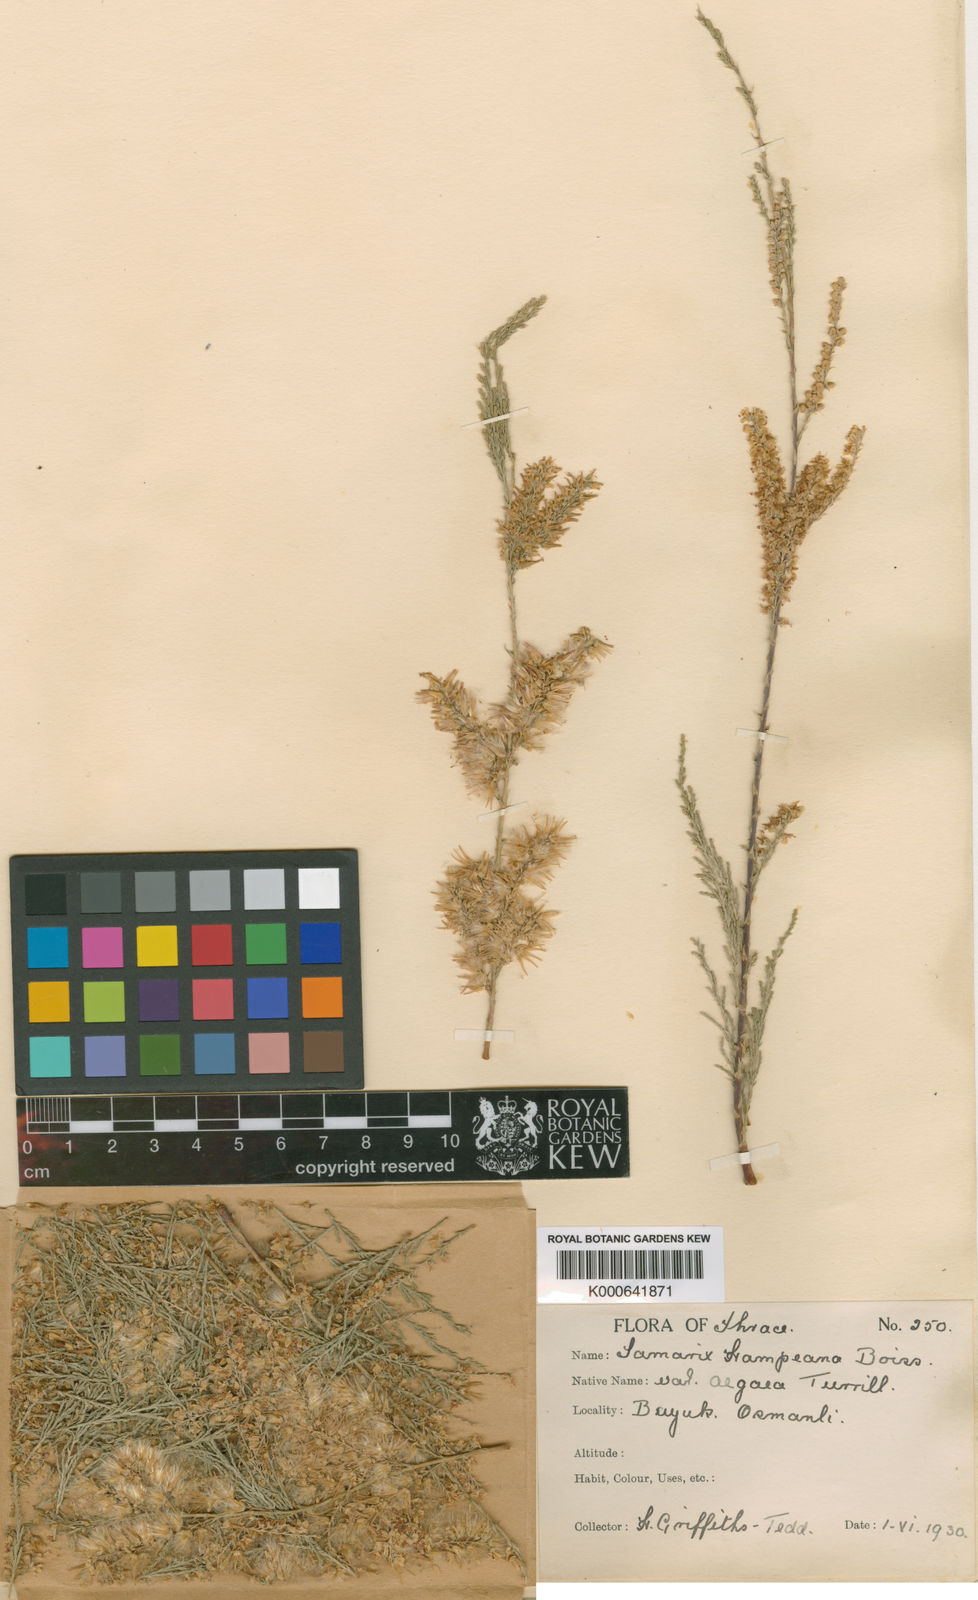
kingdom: Plantae
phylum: Tracheophyta
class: Magnoliopsida
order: Caryophyllales
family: Tamaricaceae
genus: Tamarix
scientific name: Tamarix hampeana
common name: Hampe’s tamarisk
